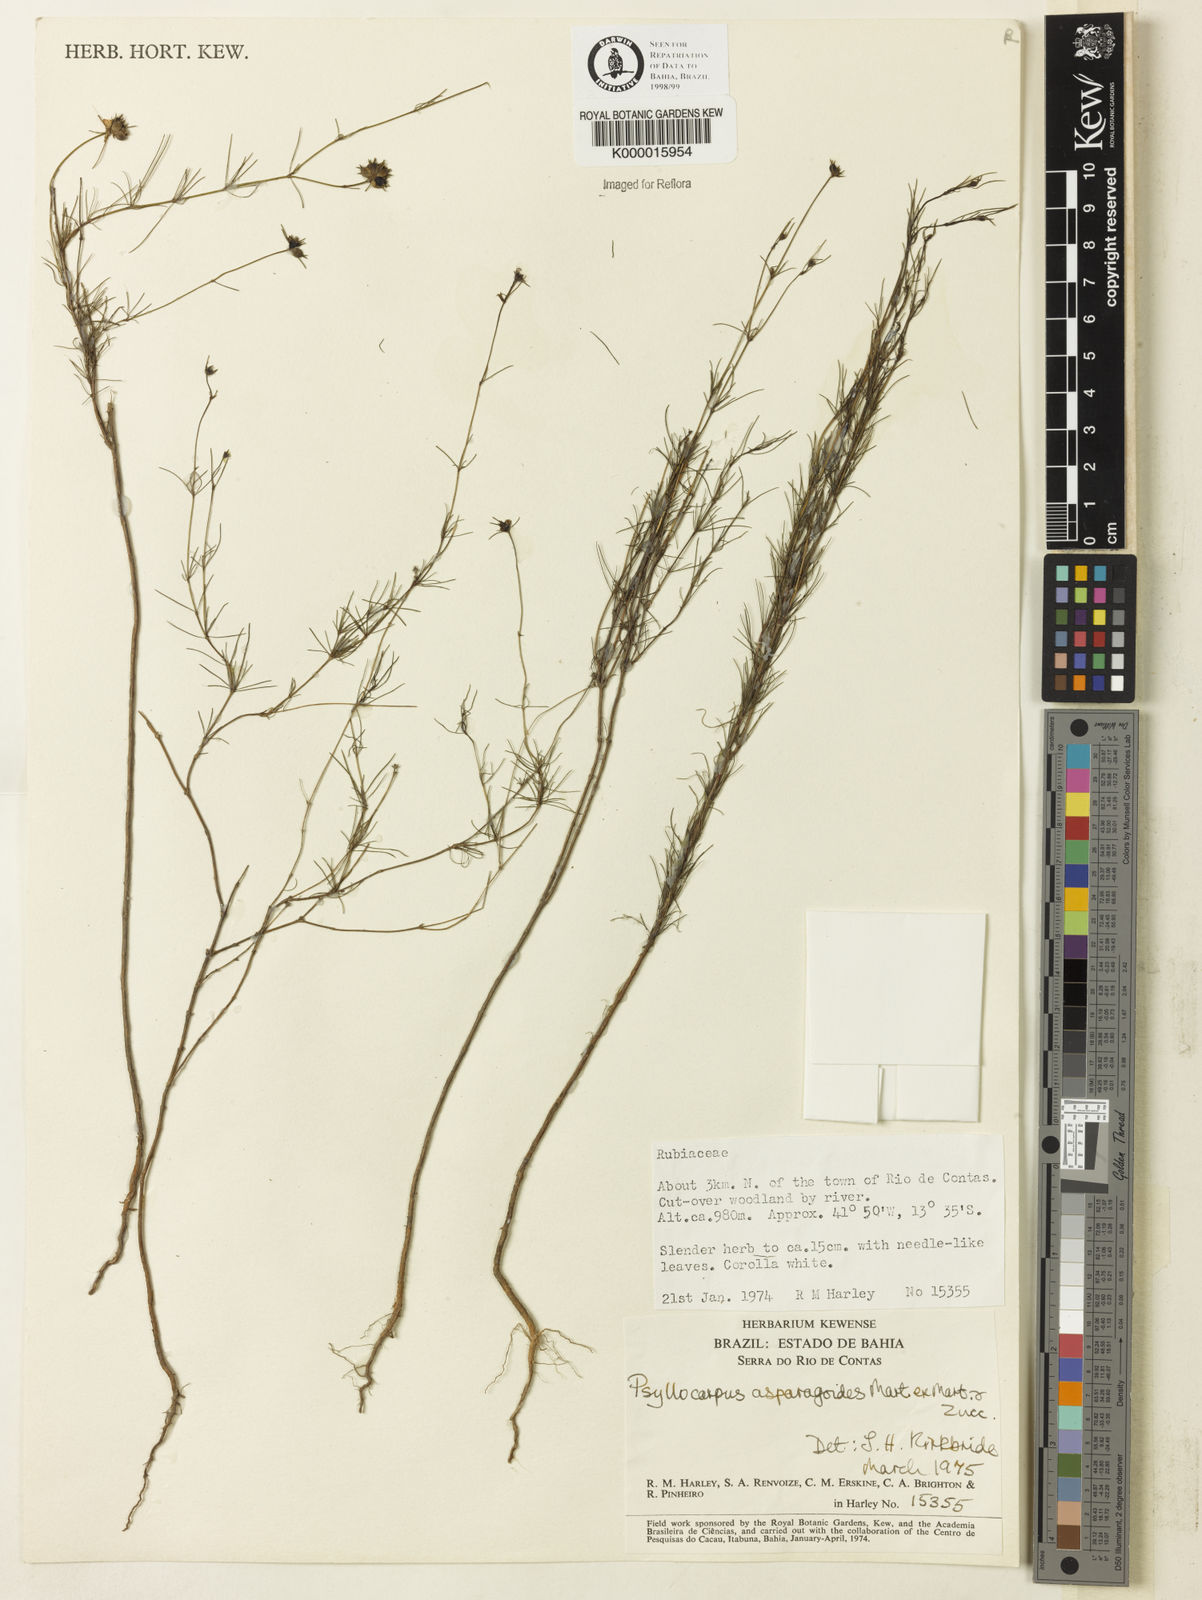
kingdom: Plantae
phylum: Tracheophyta
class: Magnoliopsida
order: Gentianales
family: Rubiaceae
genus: Psyllocarpus
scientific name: Psyllocarpus asparagoides
